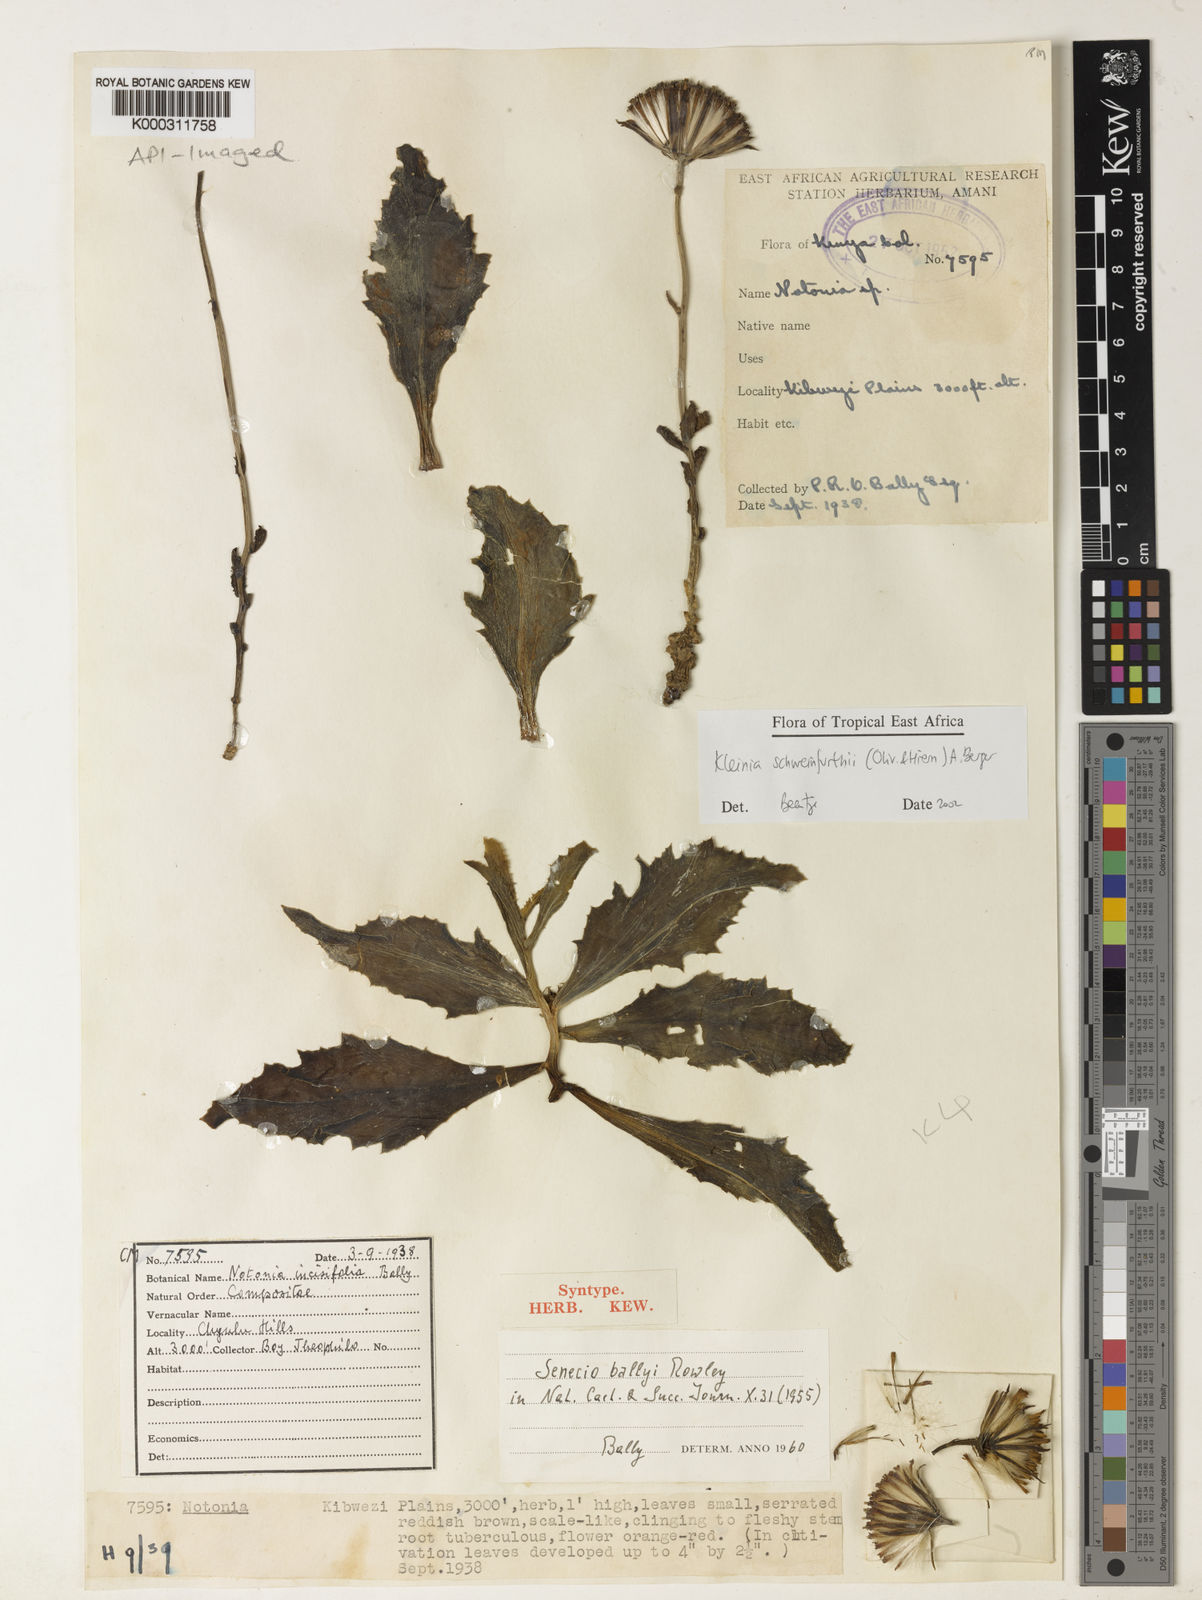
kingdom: Plantae
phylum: Tracheophyta
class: Magnoliopsida
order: Asterales
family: Asteraceae
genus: Kleinia
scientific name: Kleinia schweinfurthii
